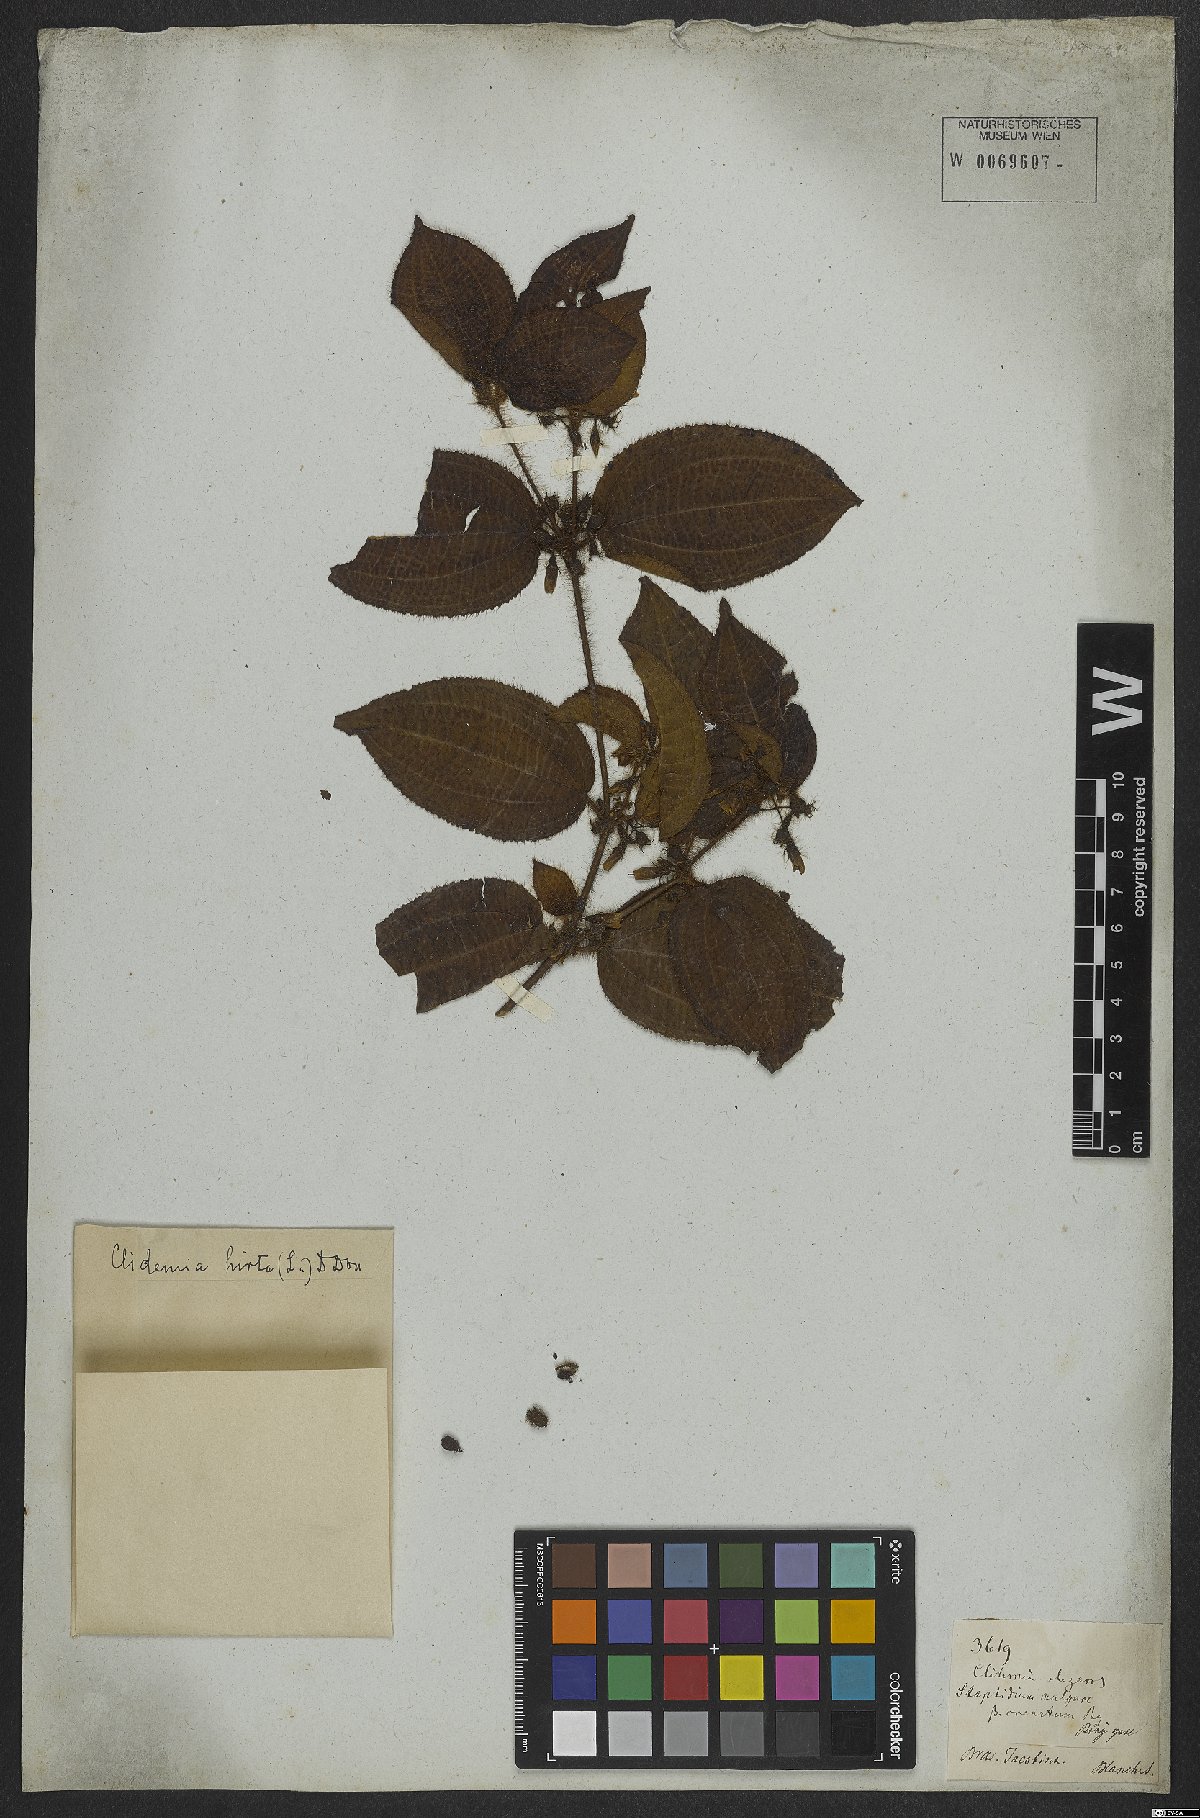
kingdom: Plantae
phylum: Tracheophyta
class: Magnoliopsida
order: Myrtales
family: Melastomataceae
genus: Miconia
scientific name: Miconia crenata
